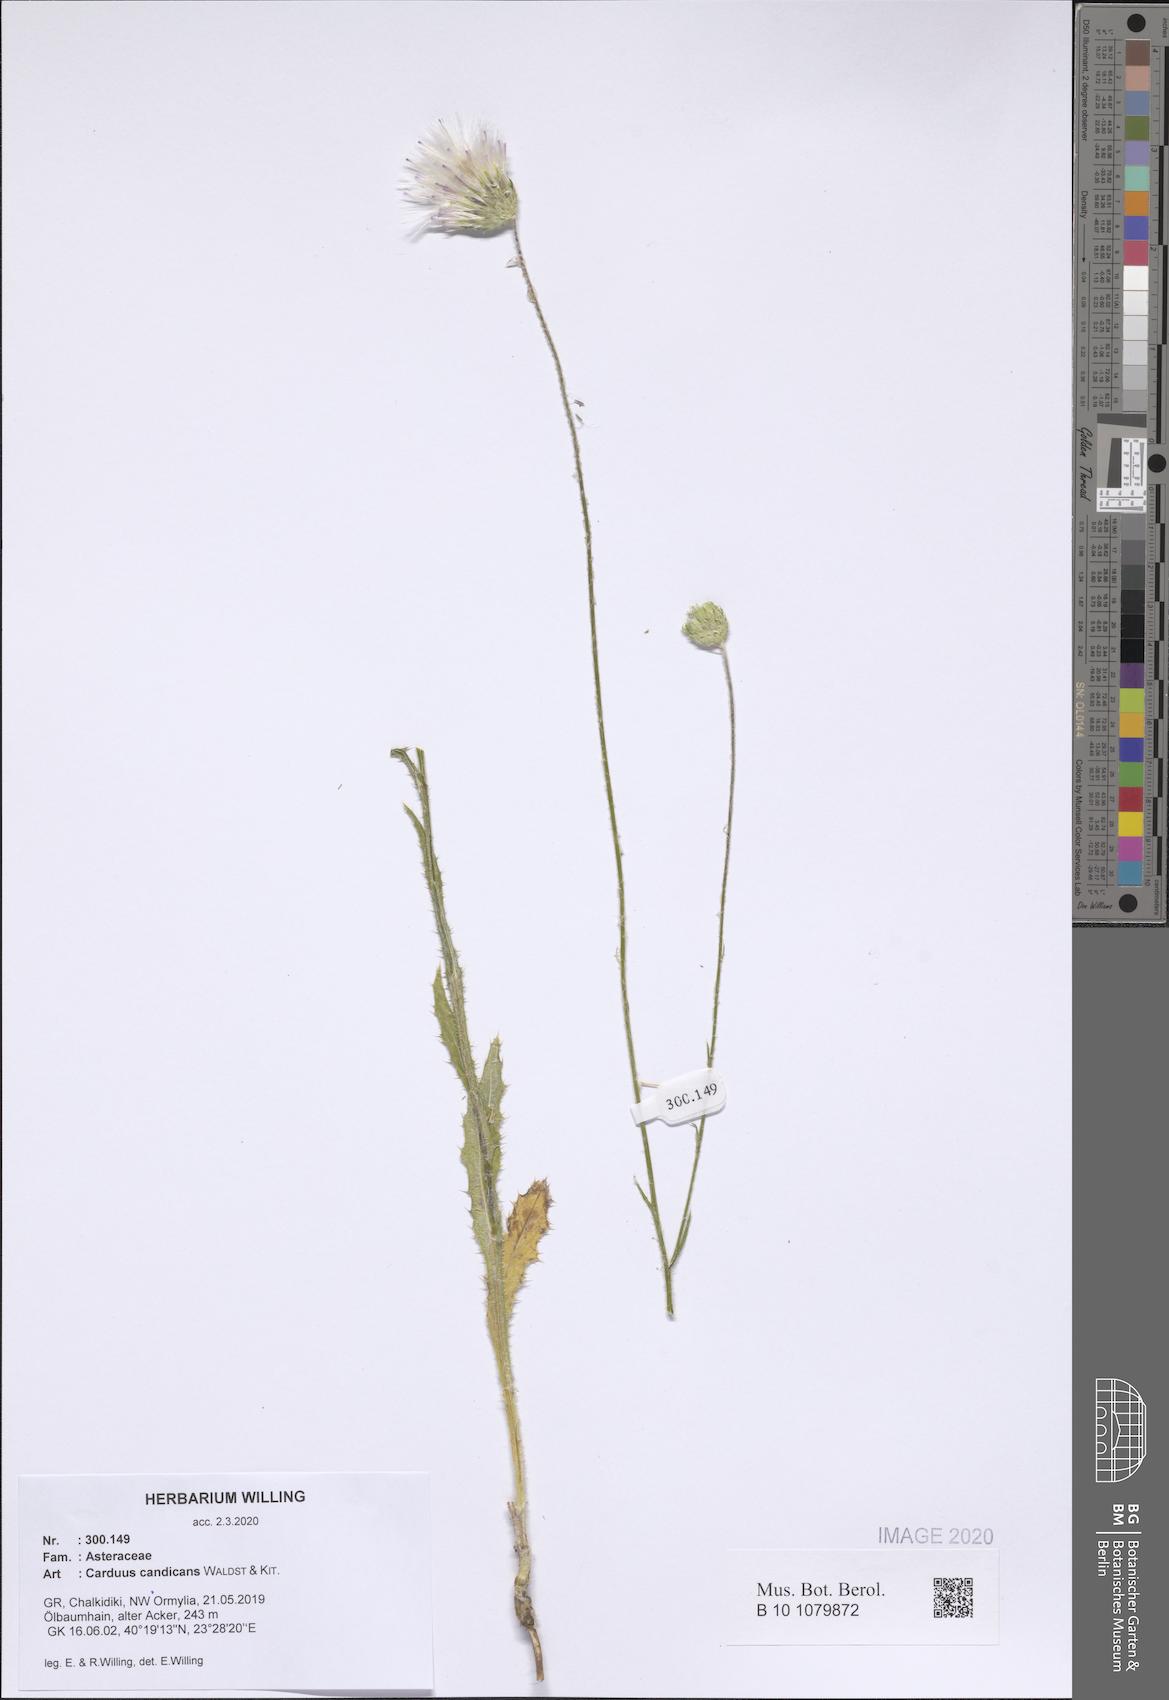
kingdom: Plantae
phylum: Tracheophyta
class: Magnoliopsida
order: Asterales
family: Asteraceae
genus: Carduus
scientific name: Carduus candicans
